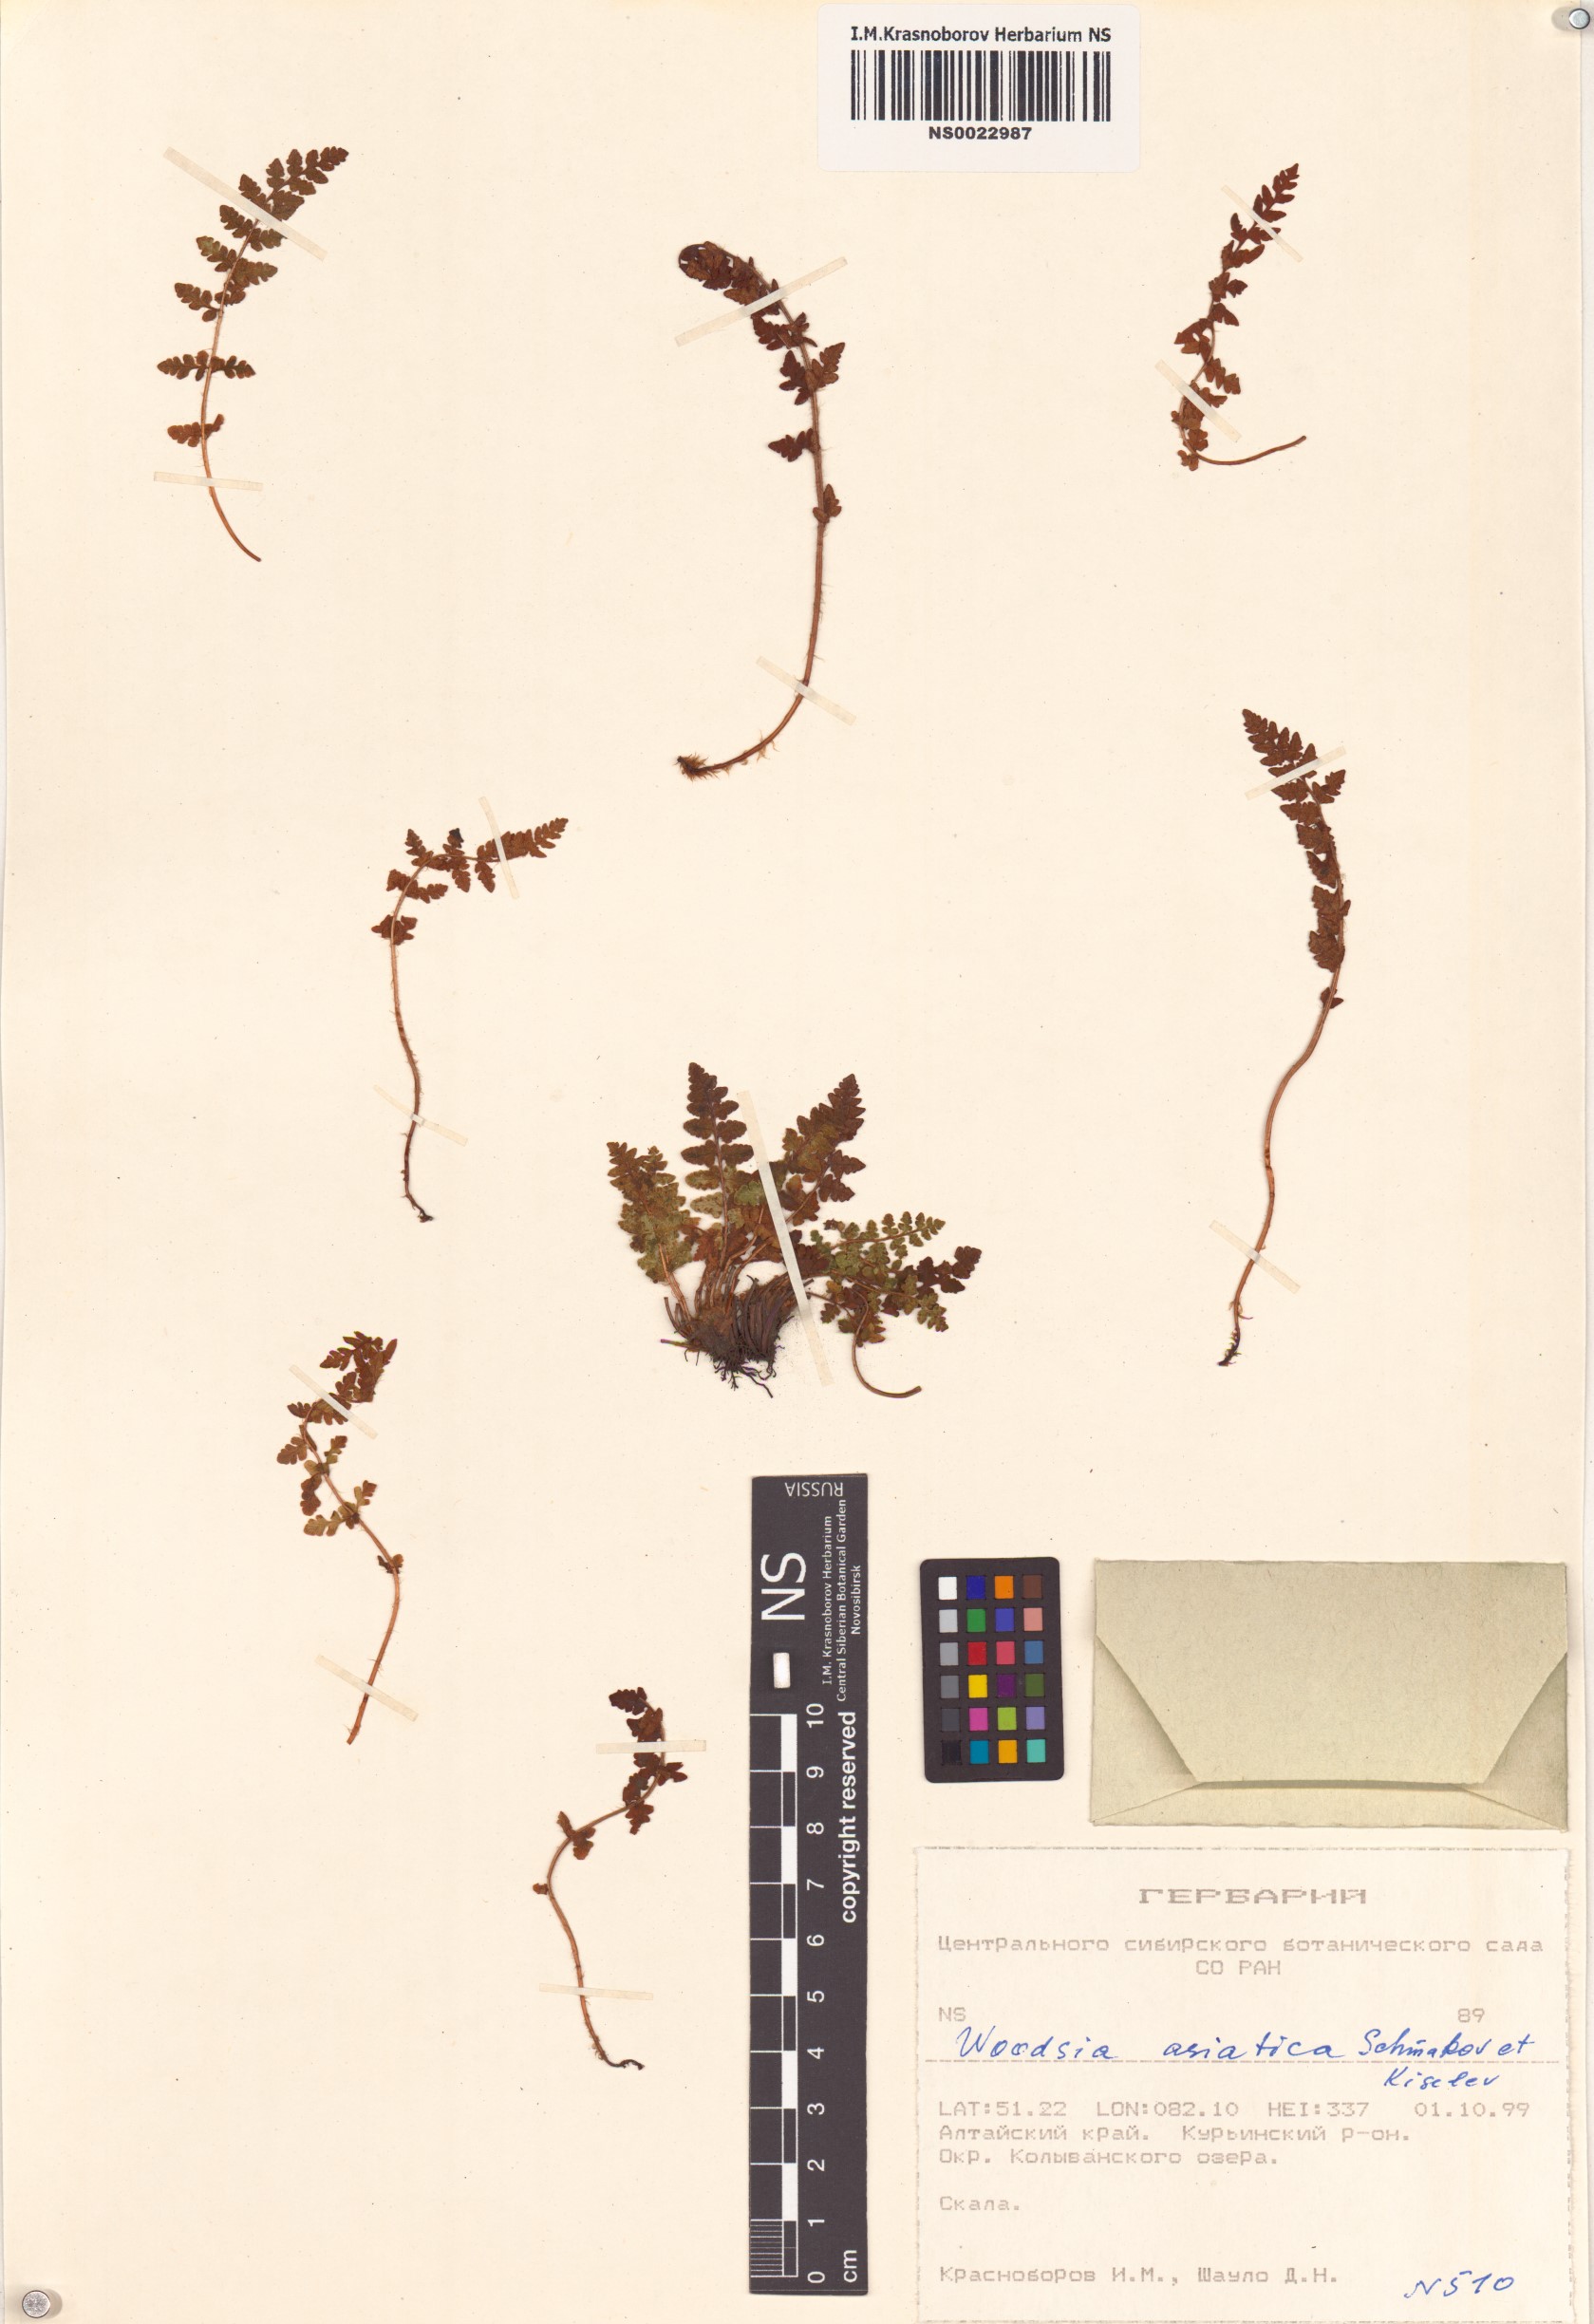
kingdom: Plantae
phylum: Tracheophyta
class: Polypodiopsida
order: Polypodiales
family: Woodsiaceae
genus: Woodsia
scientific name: Woodsia asiatica
